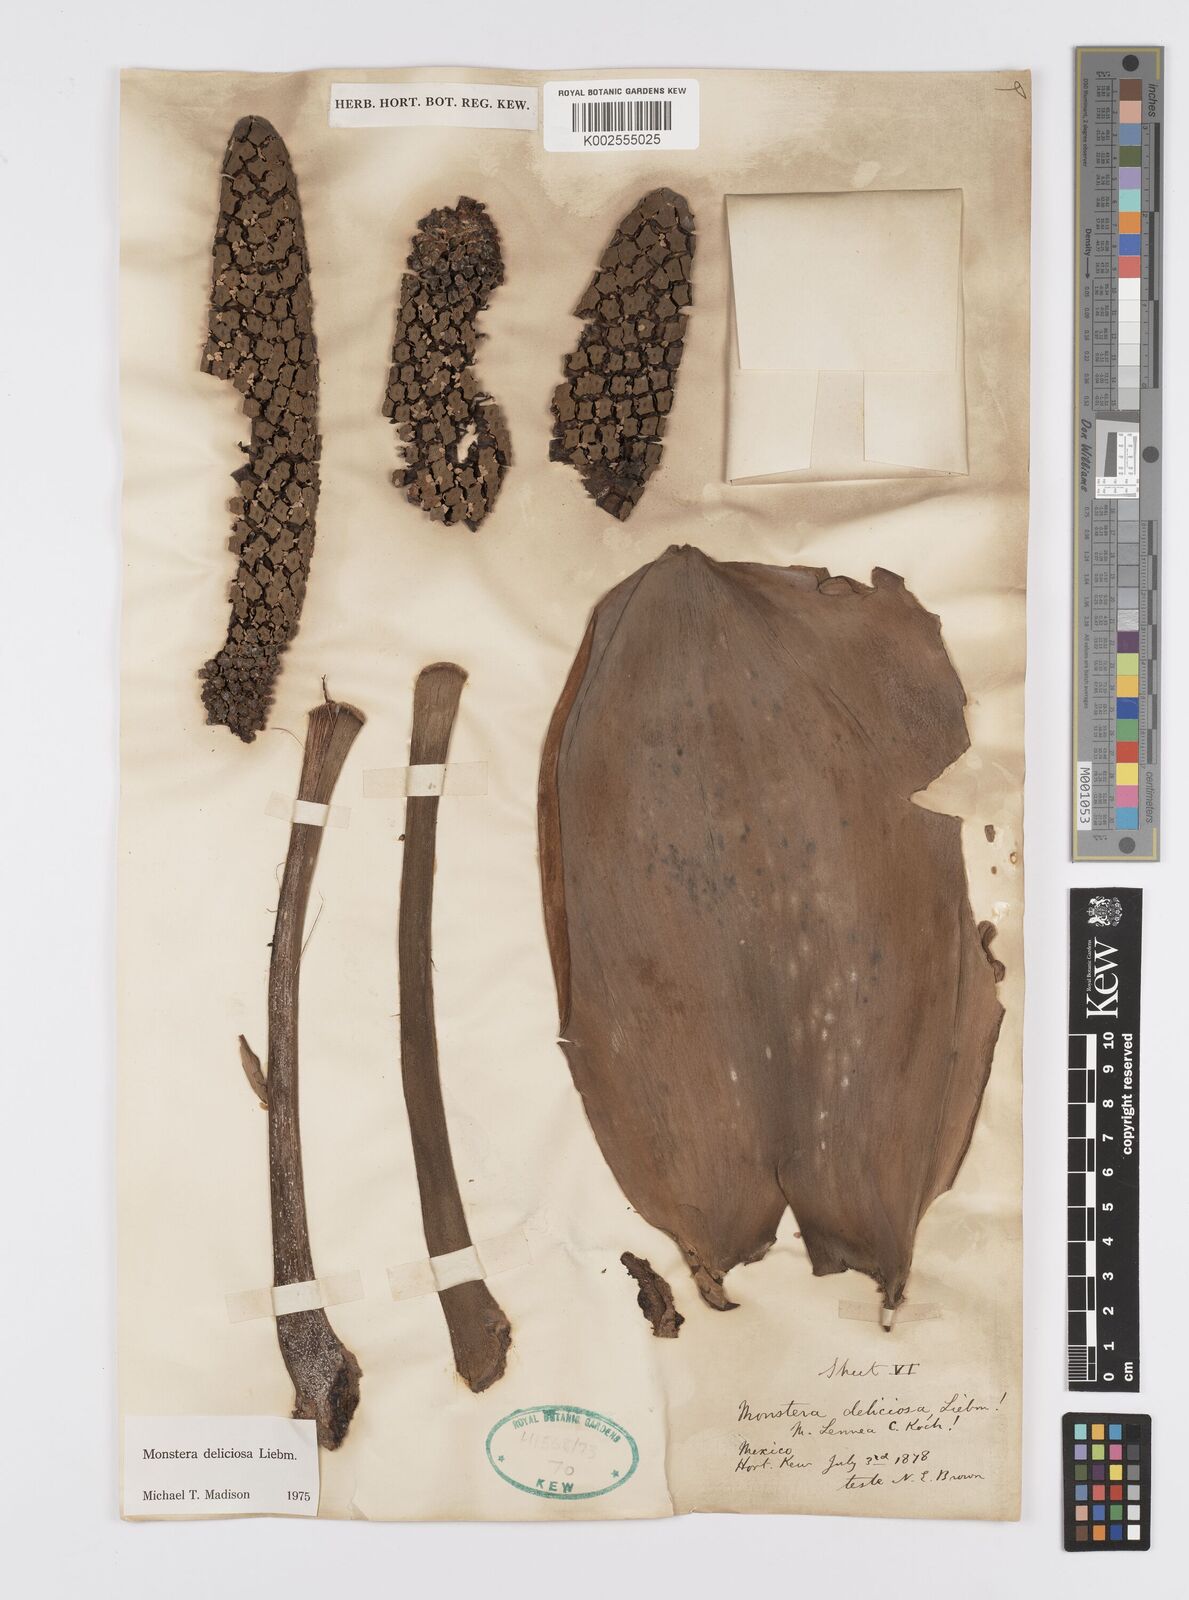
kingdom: Plantae
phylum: Tracheophyta
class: Liliopsida
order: Alismatales
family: Araceae
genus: Monstera
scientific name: Monstera deliciosa
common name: Cut-leaf-philodendron
